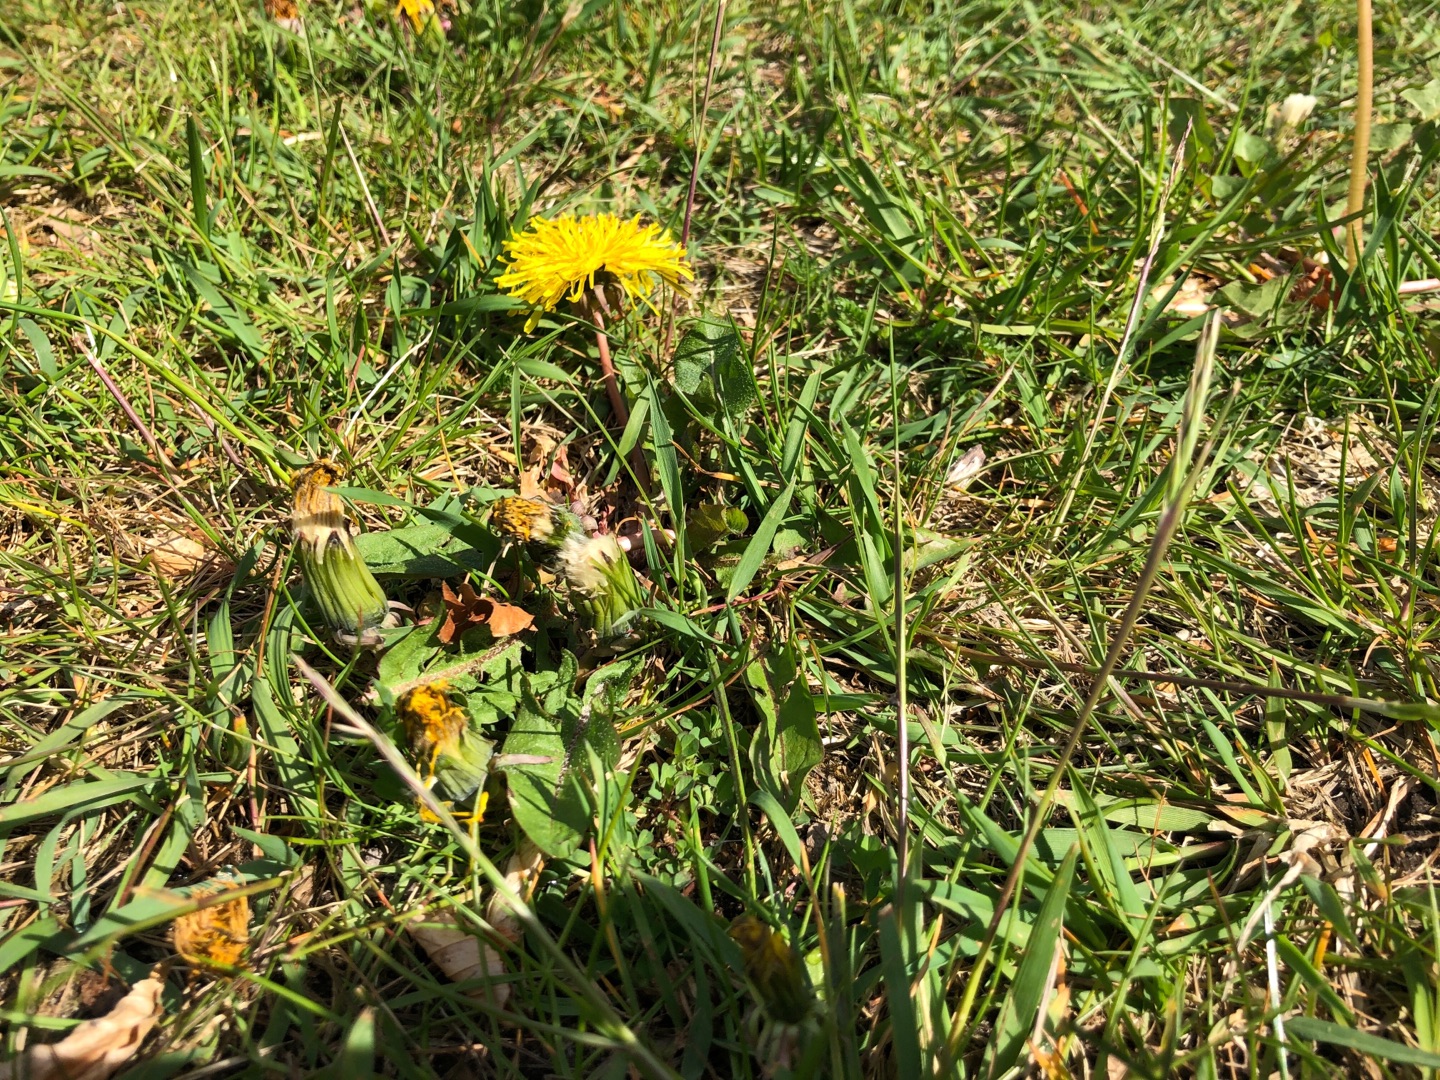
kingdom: Plantae
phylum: Tracheophyta
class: Magnoliopsida
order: Asterales
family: Asteraceae
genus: Taraxacum
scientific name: Taraxacum
